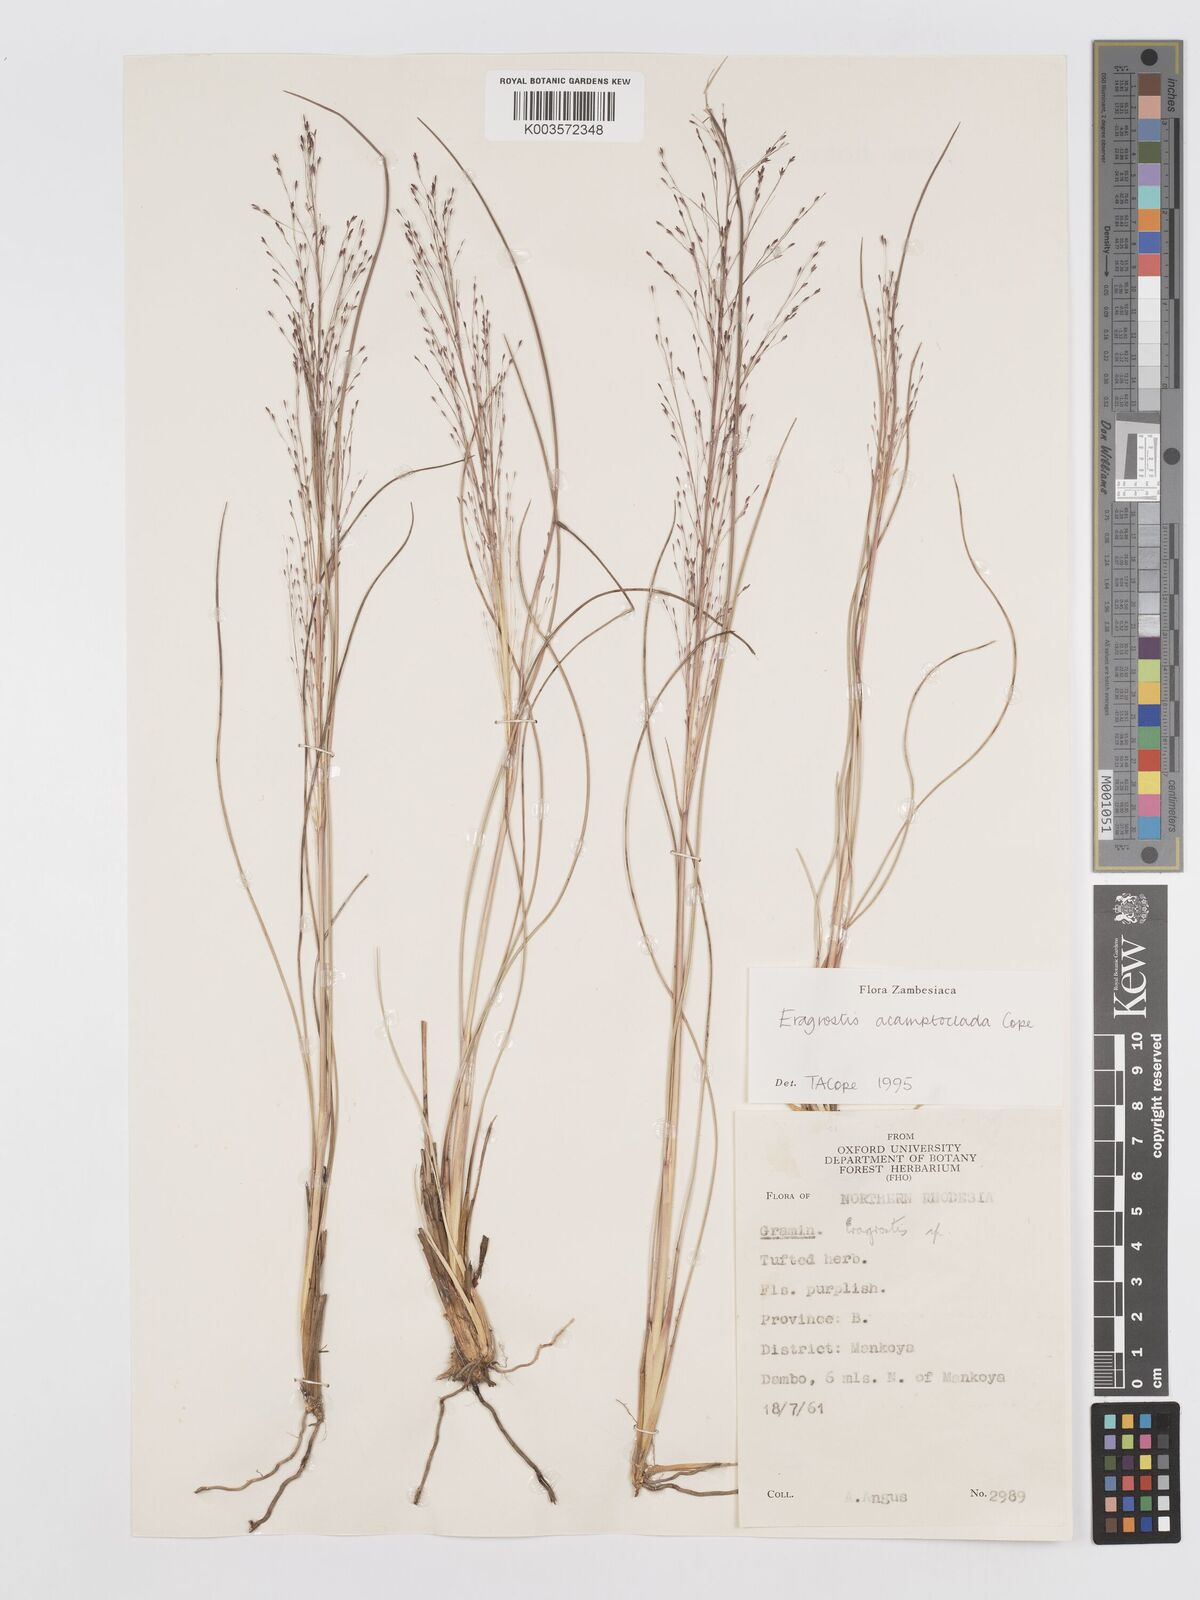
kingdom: Plantae
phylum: Tracheophyta
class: Liliopsida
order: Poales
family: Poaceae
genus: Eragrostis
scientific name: Eragrostis acamptoclada
